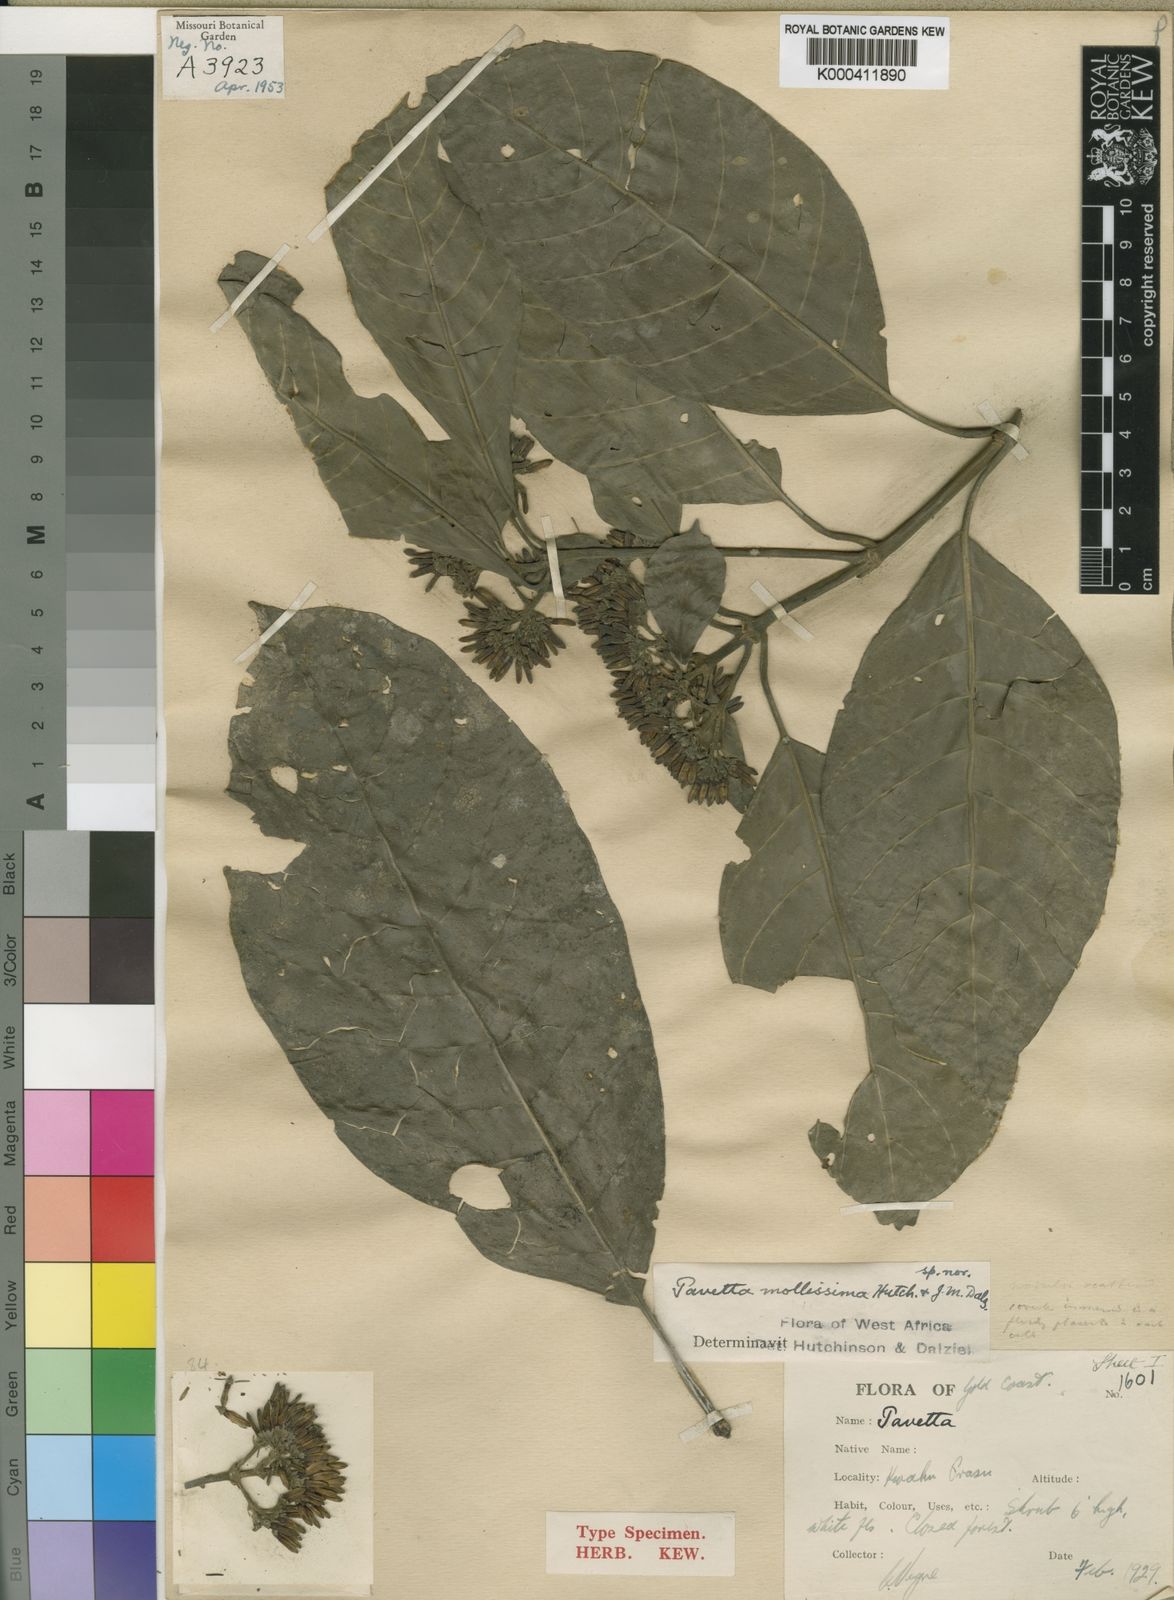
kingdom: Plantae
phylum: Tracheophyta
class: Magnoliopsida
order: Gentianales
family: Rubiaceae
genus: Pavetta
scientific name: Pavetta mollissima
